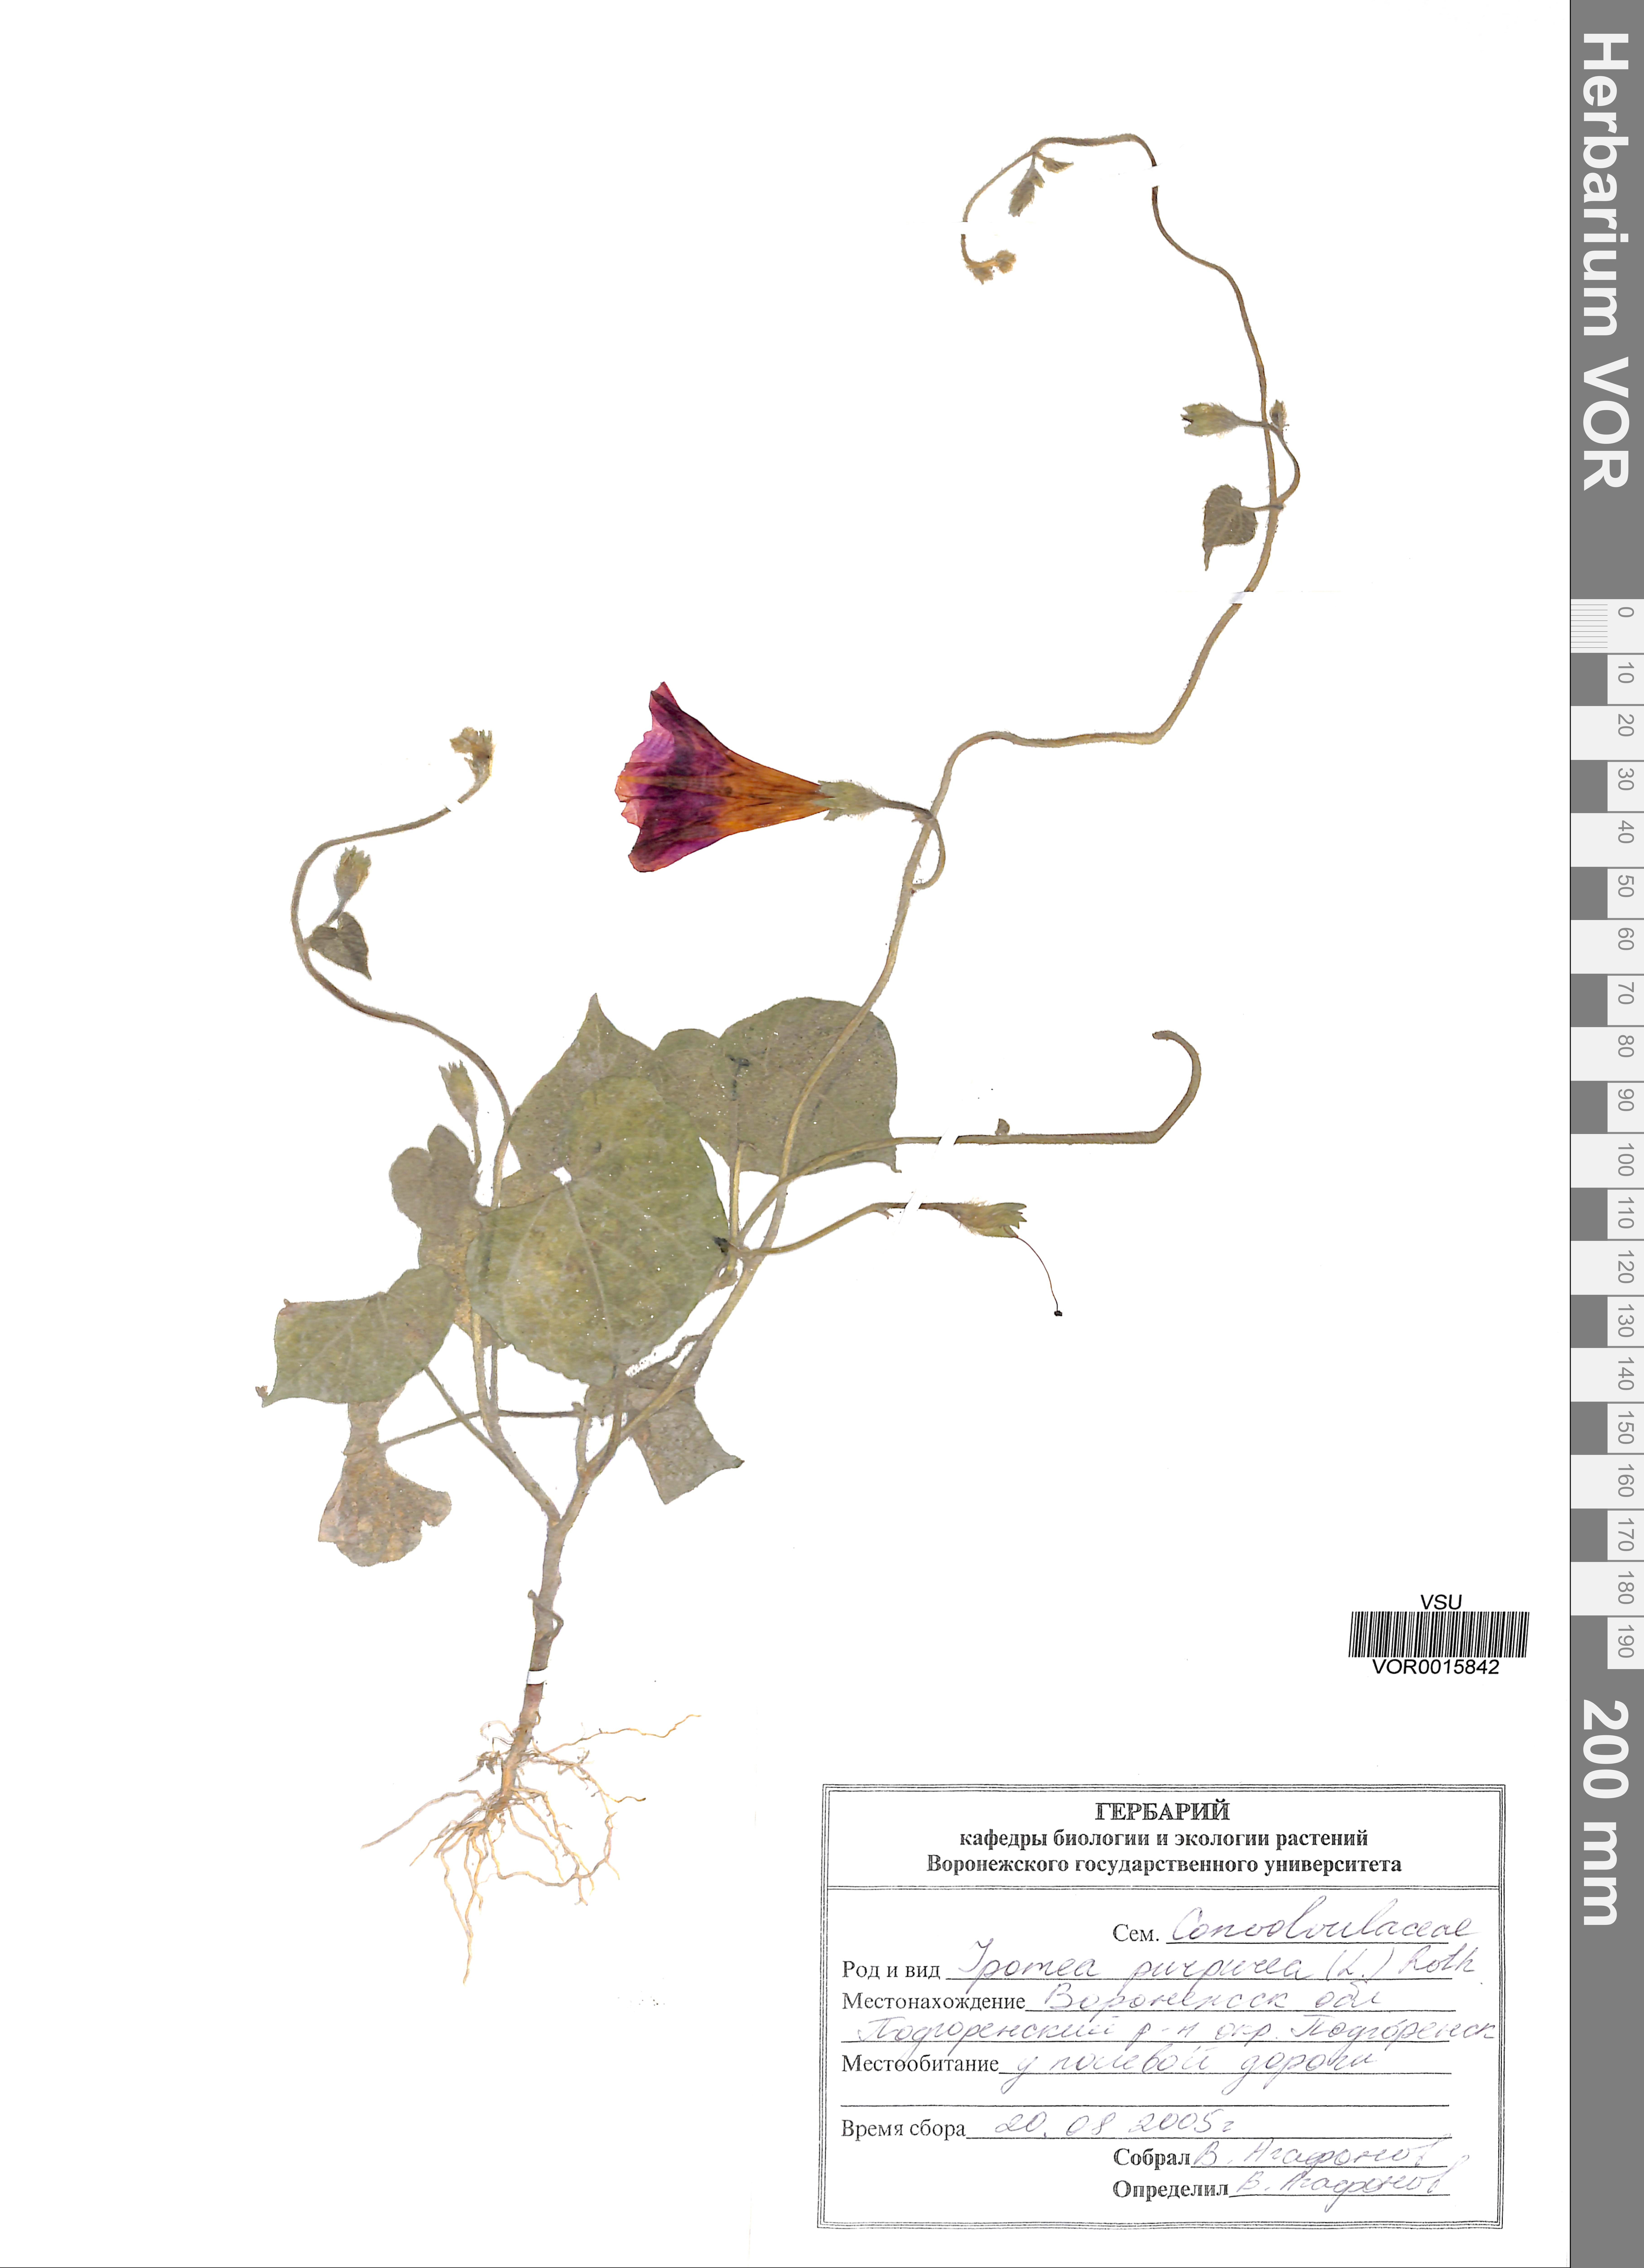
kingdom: Plantae
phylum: Tracheophyta
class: Magnoliopsida
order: Solanales
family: Convolvulaceae
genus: Ipomoea
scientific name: Ipomoea purpurea
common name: Common morning-glory
